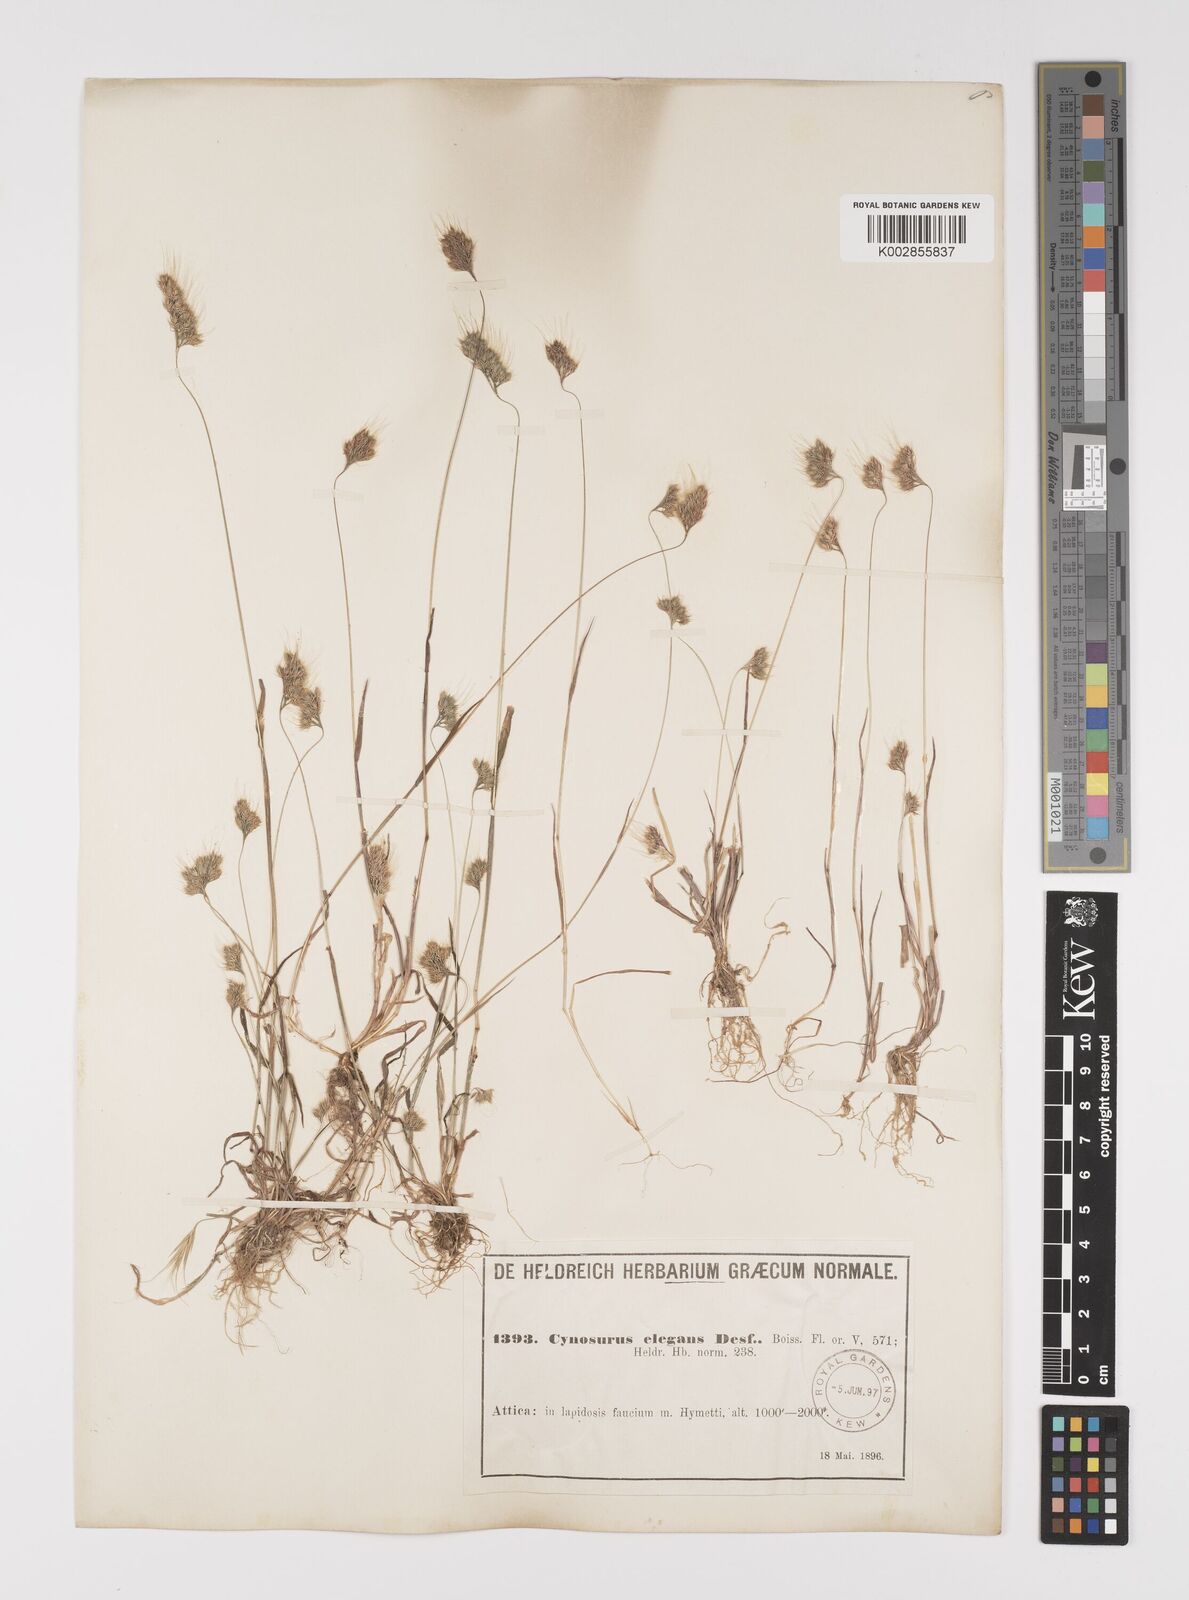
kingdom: Plantae
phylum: Tracheophyta
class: Liliopsida
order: Poales
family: Poaceae
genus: Cynosurus
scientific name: Cynosurus elegans
